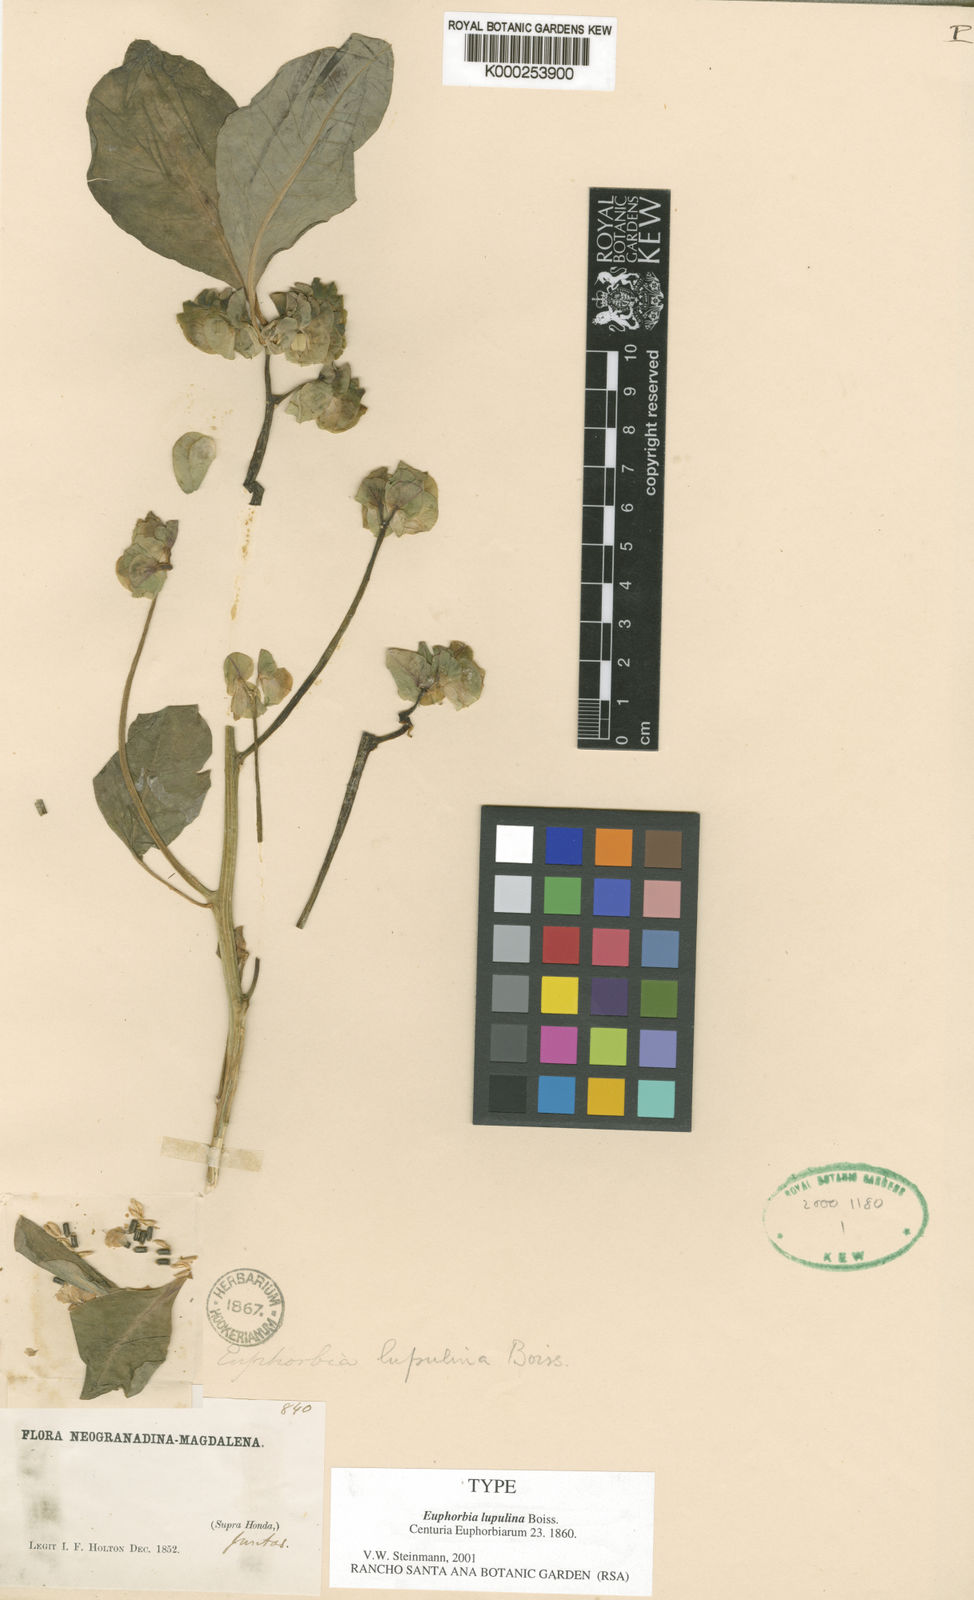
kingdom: Plantae
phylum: Tracheophyta
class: Magnoliopsida
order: Malpighiales
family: Euphorbiaceae
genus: Euphorbia
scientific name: Euphorbia comosa
